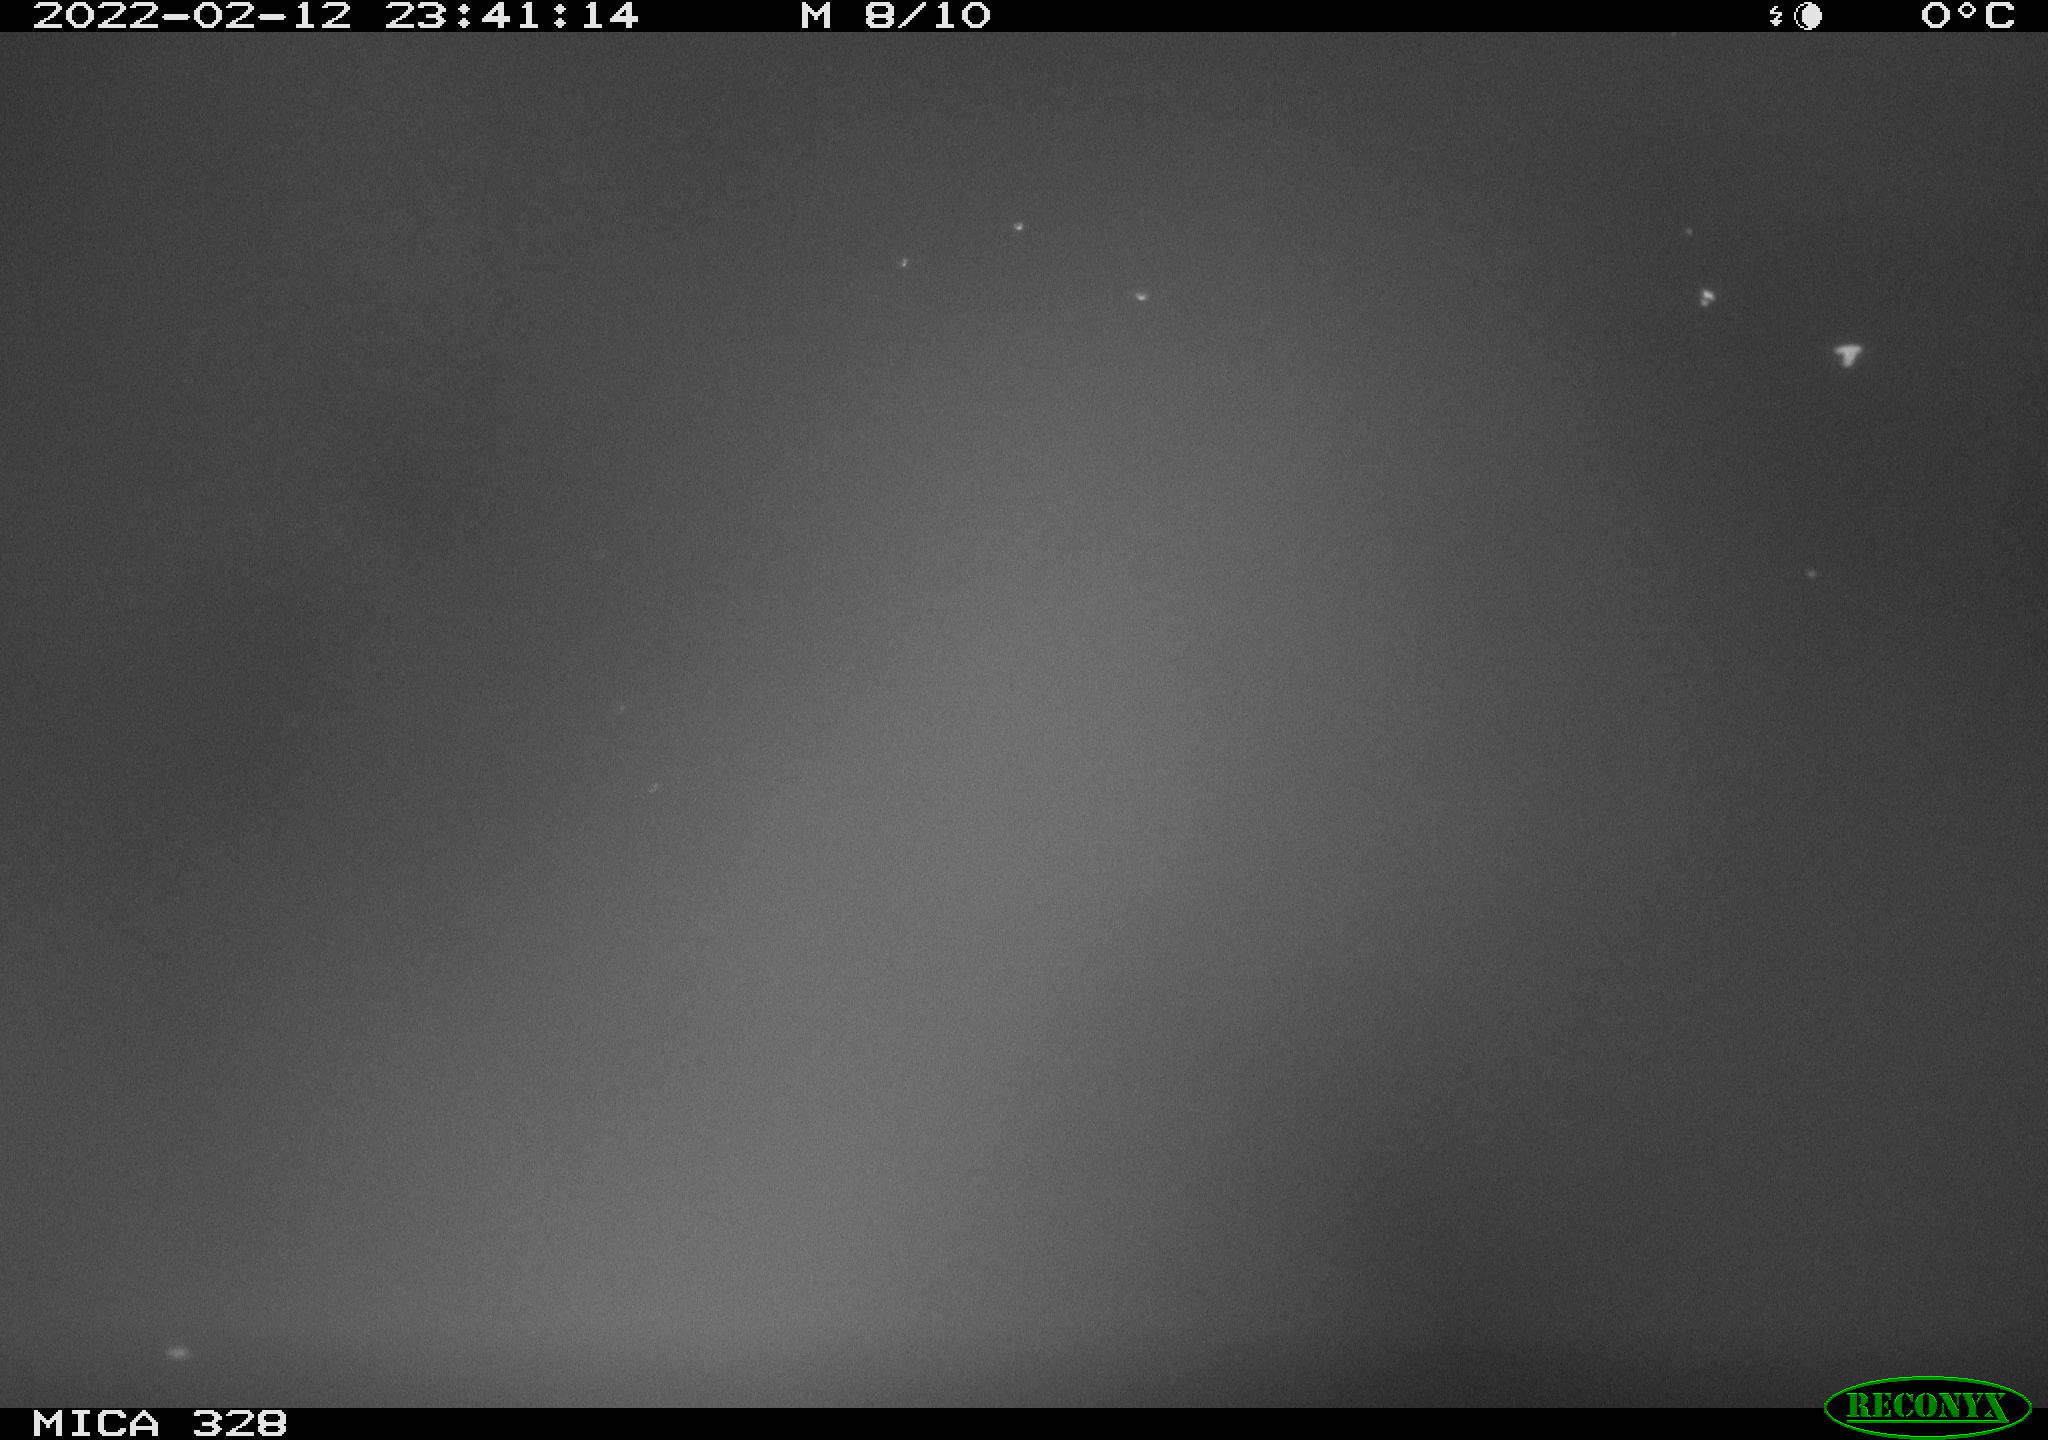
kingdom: Animalia
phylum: Chordata
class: Aves
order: Anseriformes
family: Anatidae
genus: Anas
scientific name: Anas platyrhynchos
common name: Mallard
